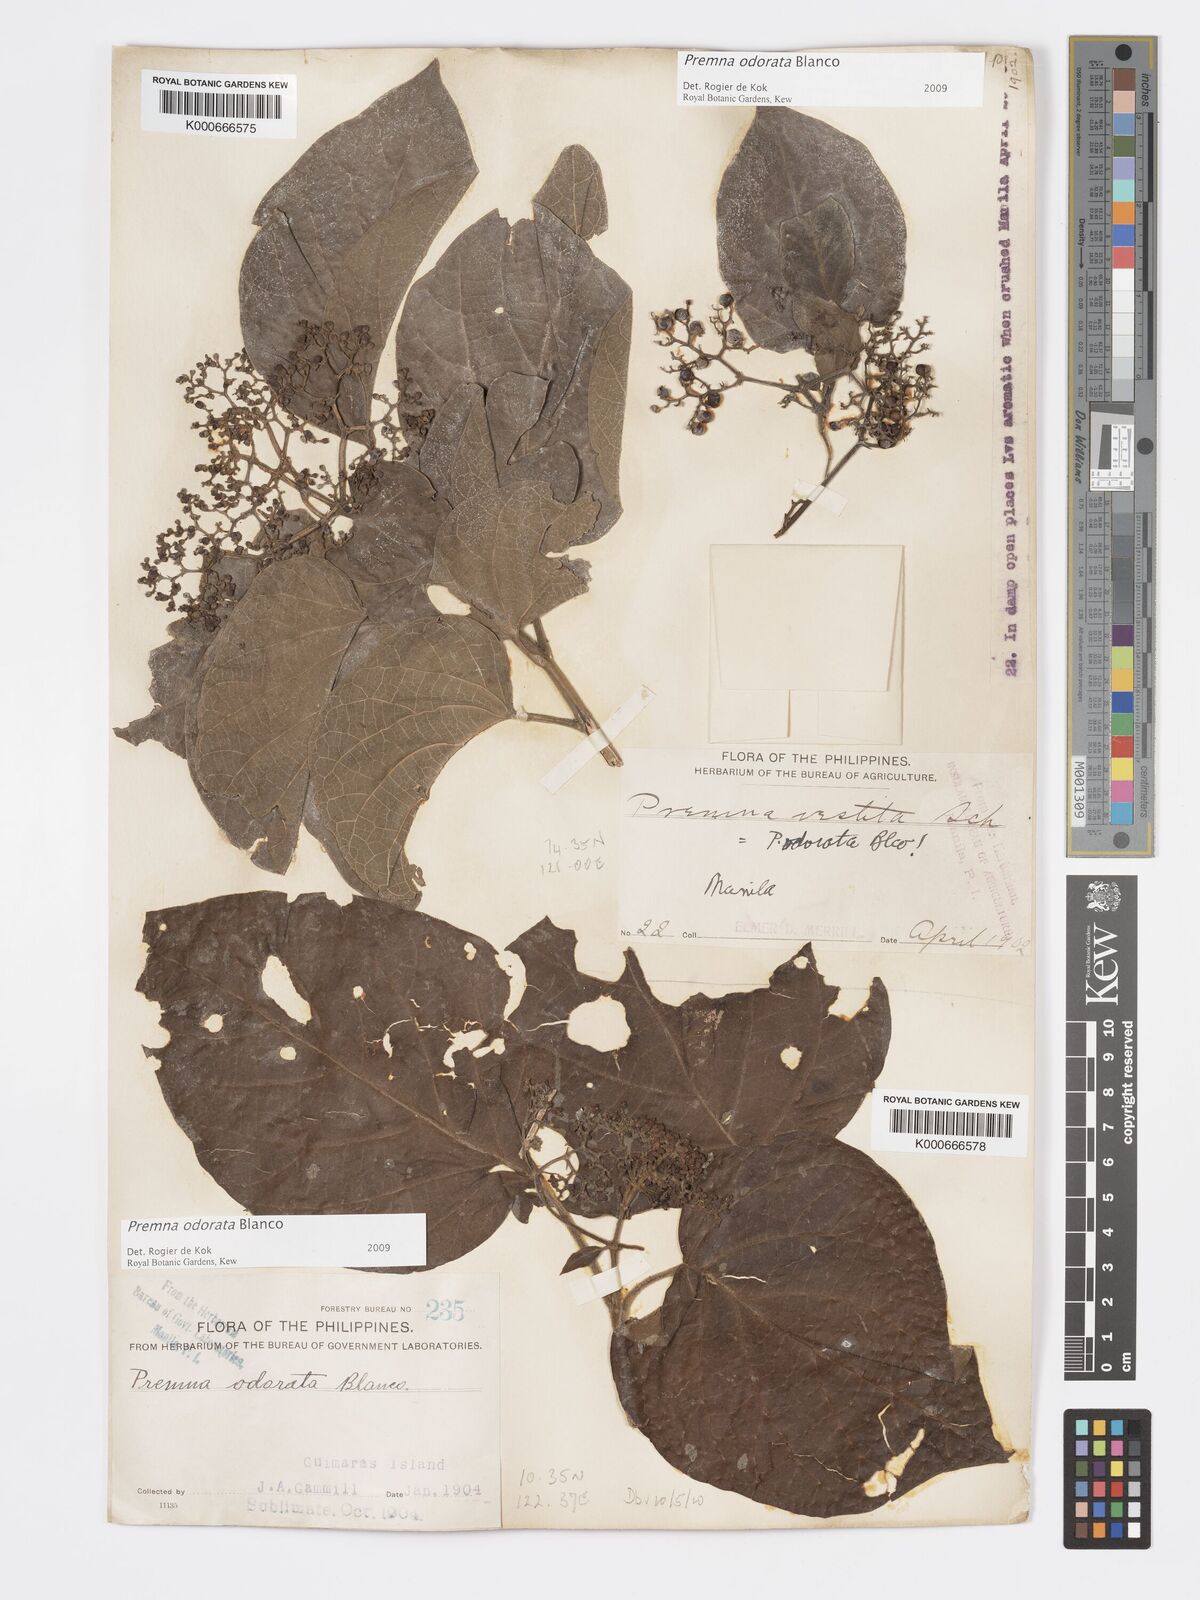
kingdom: Plantae
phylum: Tracheophyta
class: Magnoliopsida
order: Lamiales
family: Lamiaceae
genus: Premna
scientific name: Premna odorata
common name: Fragrant premna
